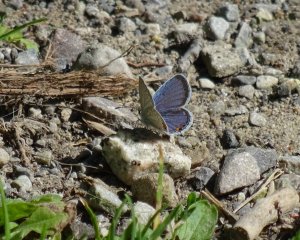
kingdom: Animalia
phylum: Arthropoda
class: Insecta
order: Lepidoptera
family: Lycaenidae
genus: Elkalyce
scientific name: Elkalyce comyntas
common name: Eastern Tailed-Blue
